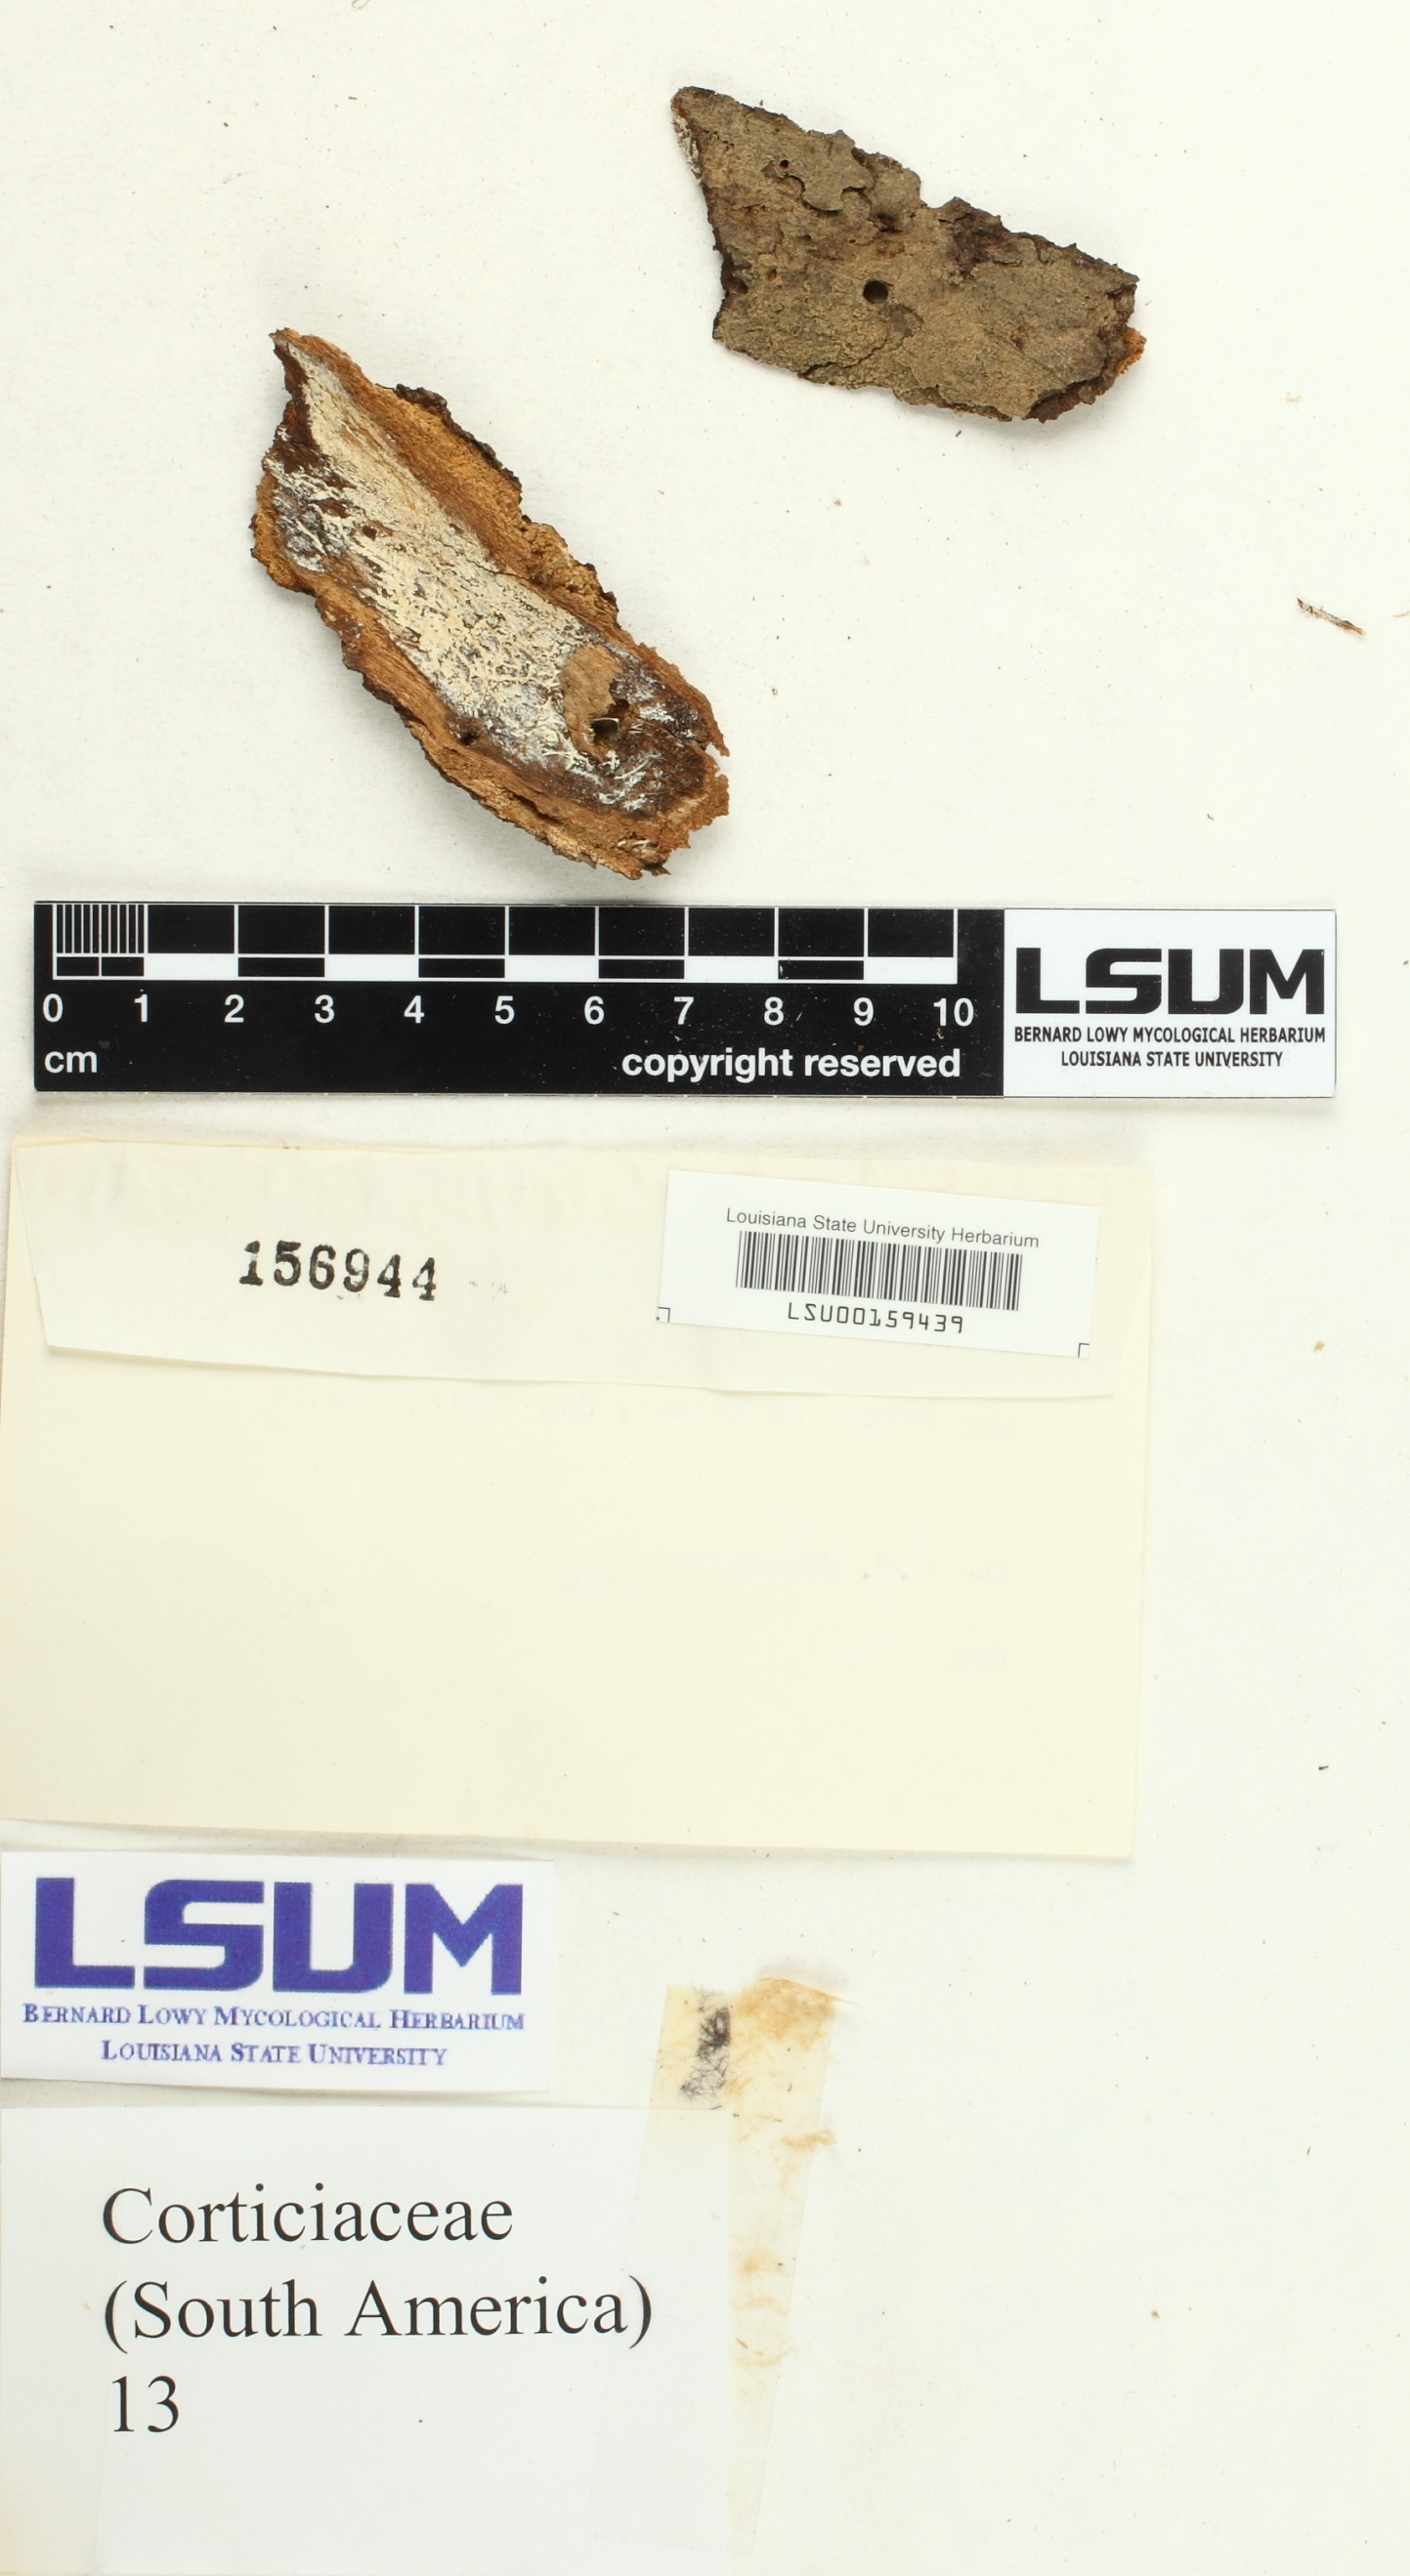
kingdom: Fungi
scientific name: Fungi
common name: Fungi
